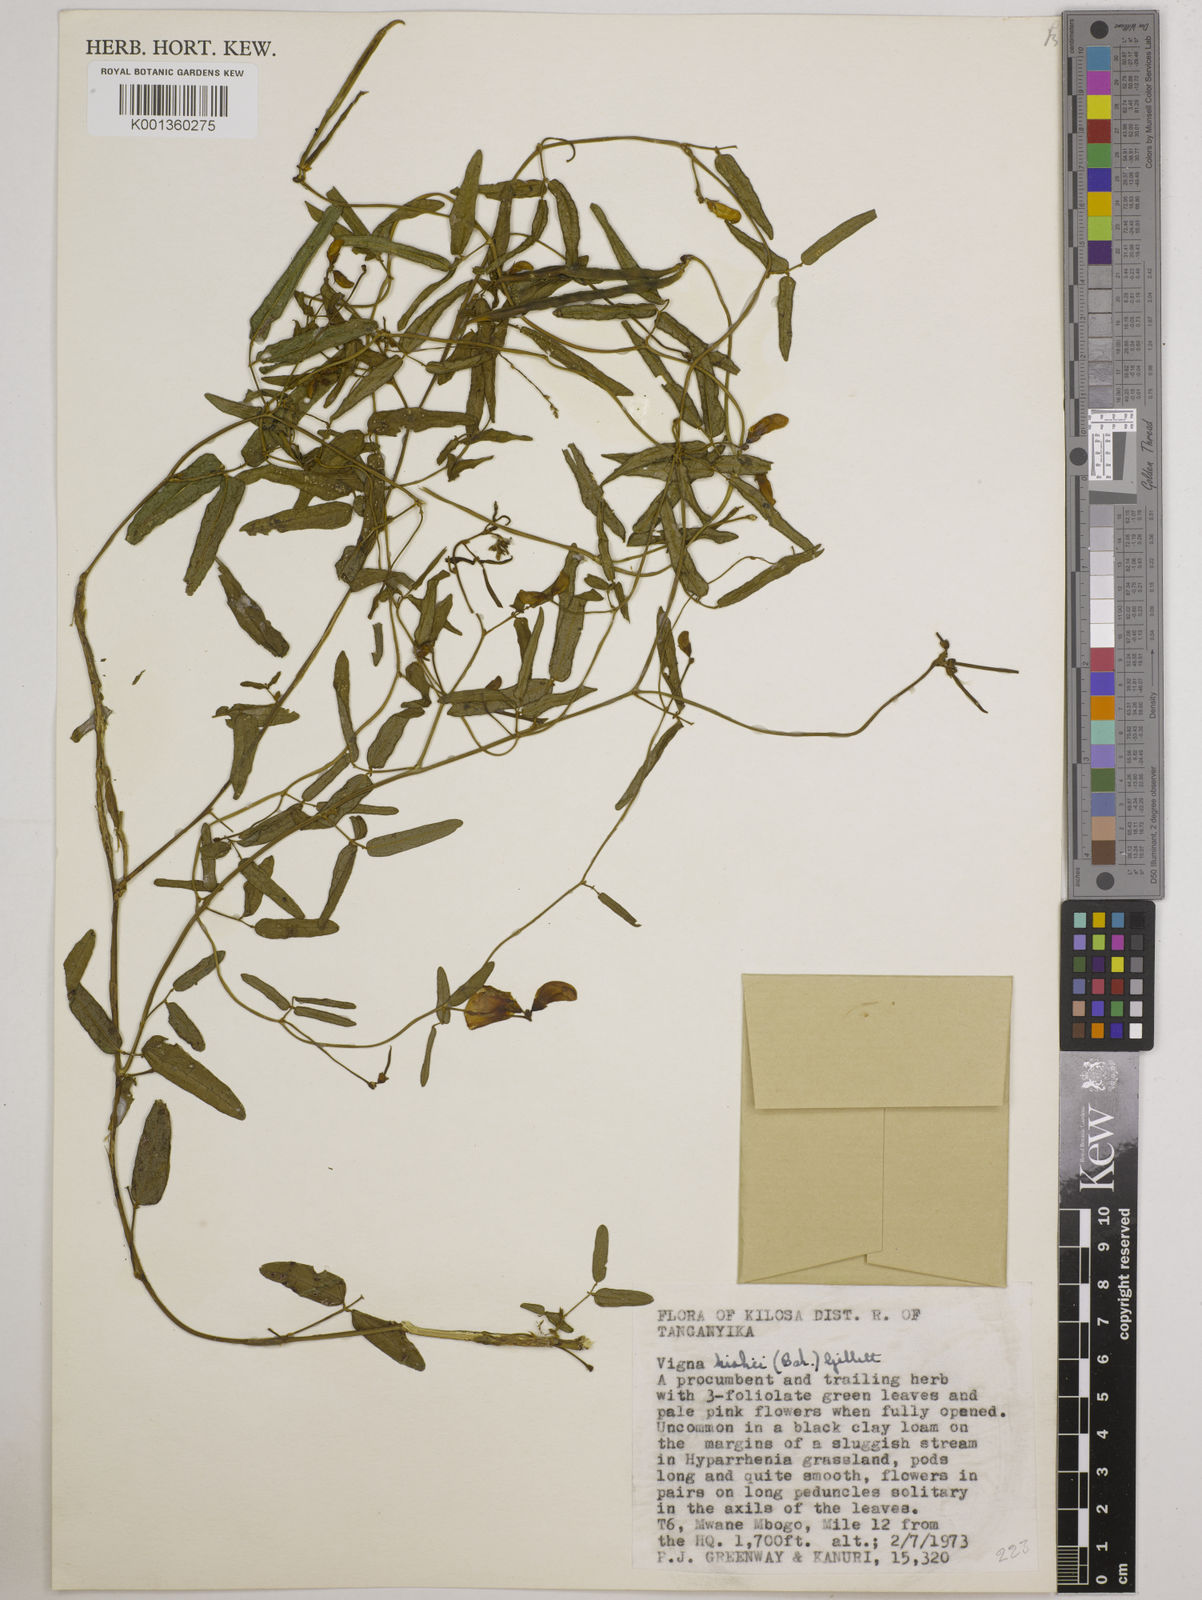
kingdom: Plantae
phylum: Tracheophyta
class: Magnoliopsida
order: Fabales
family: Fabaceae
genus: Vigna
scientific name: Vigna kirkii
